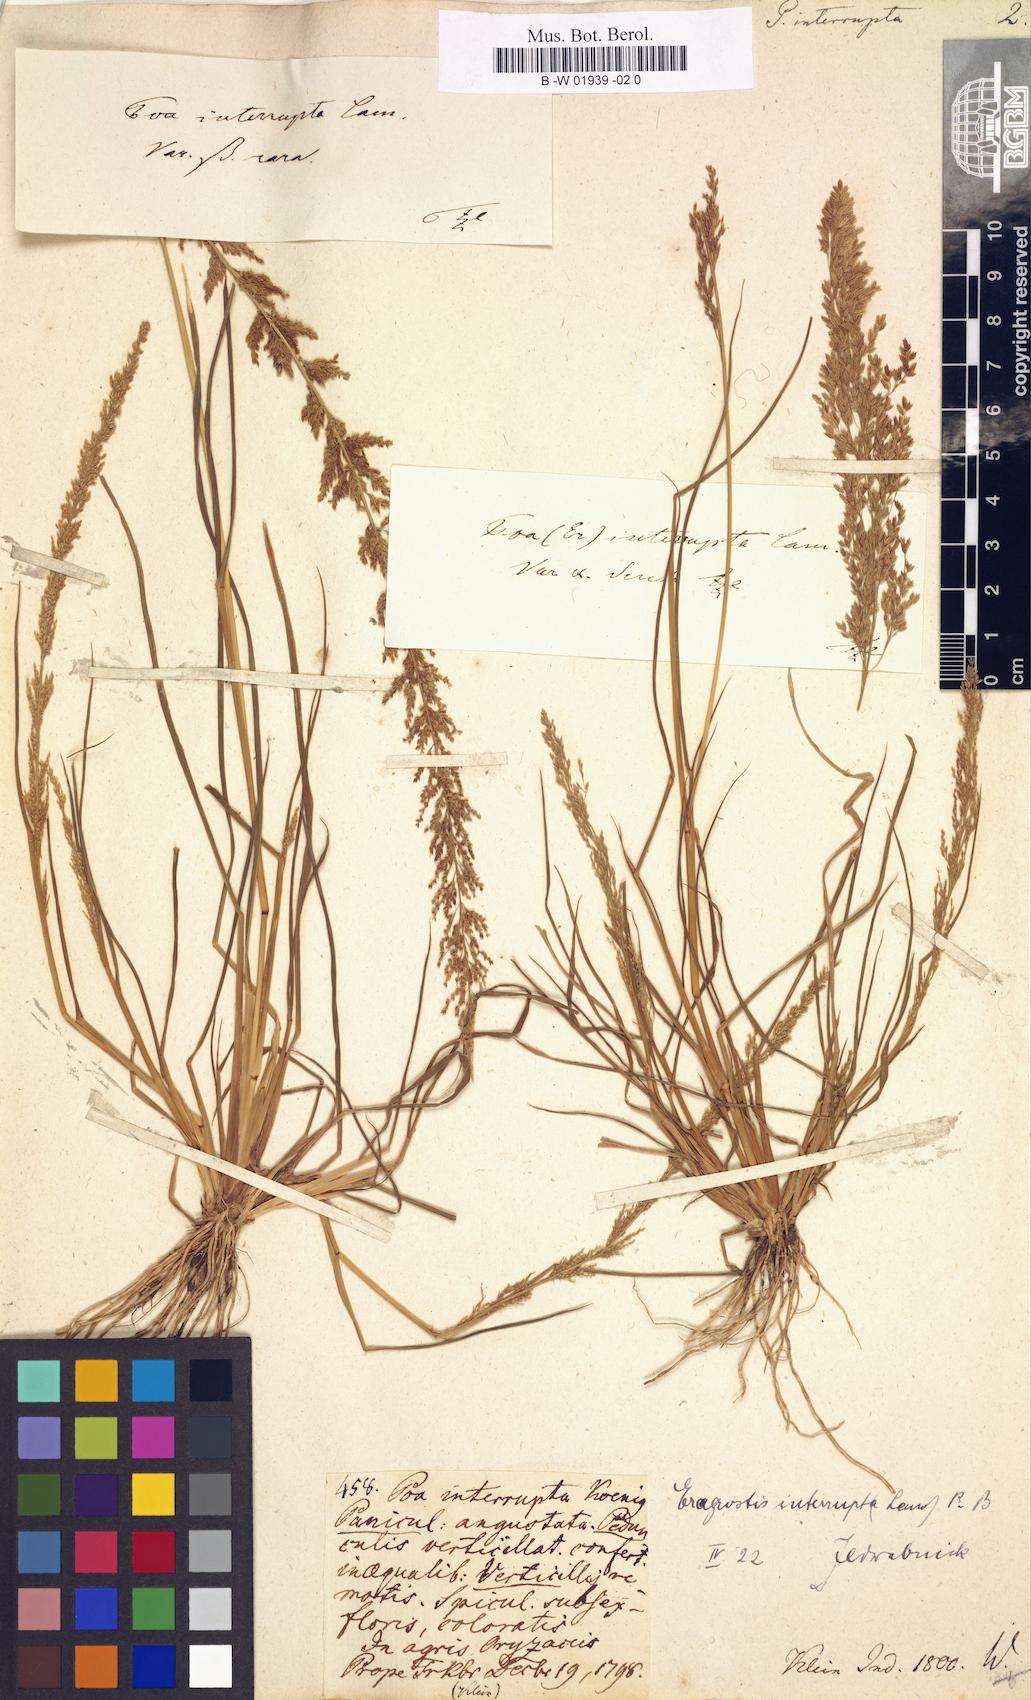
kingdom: Plantae
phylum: Tracheophyta
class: Liliopsida
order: Poales
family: Poaceae
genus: Eragrostis
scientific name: Eragrostis japonica
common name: Pond lovegrass
